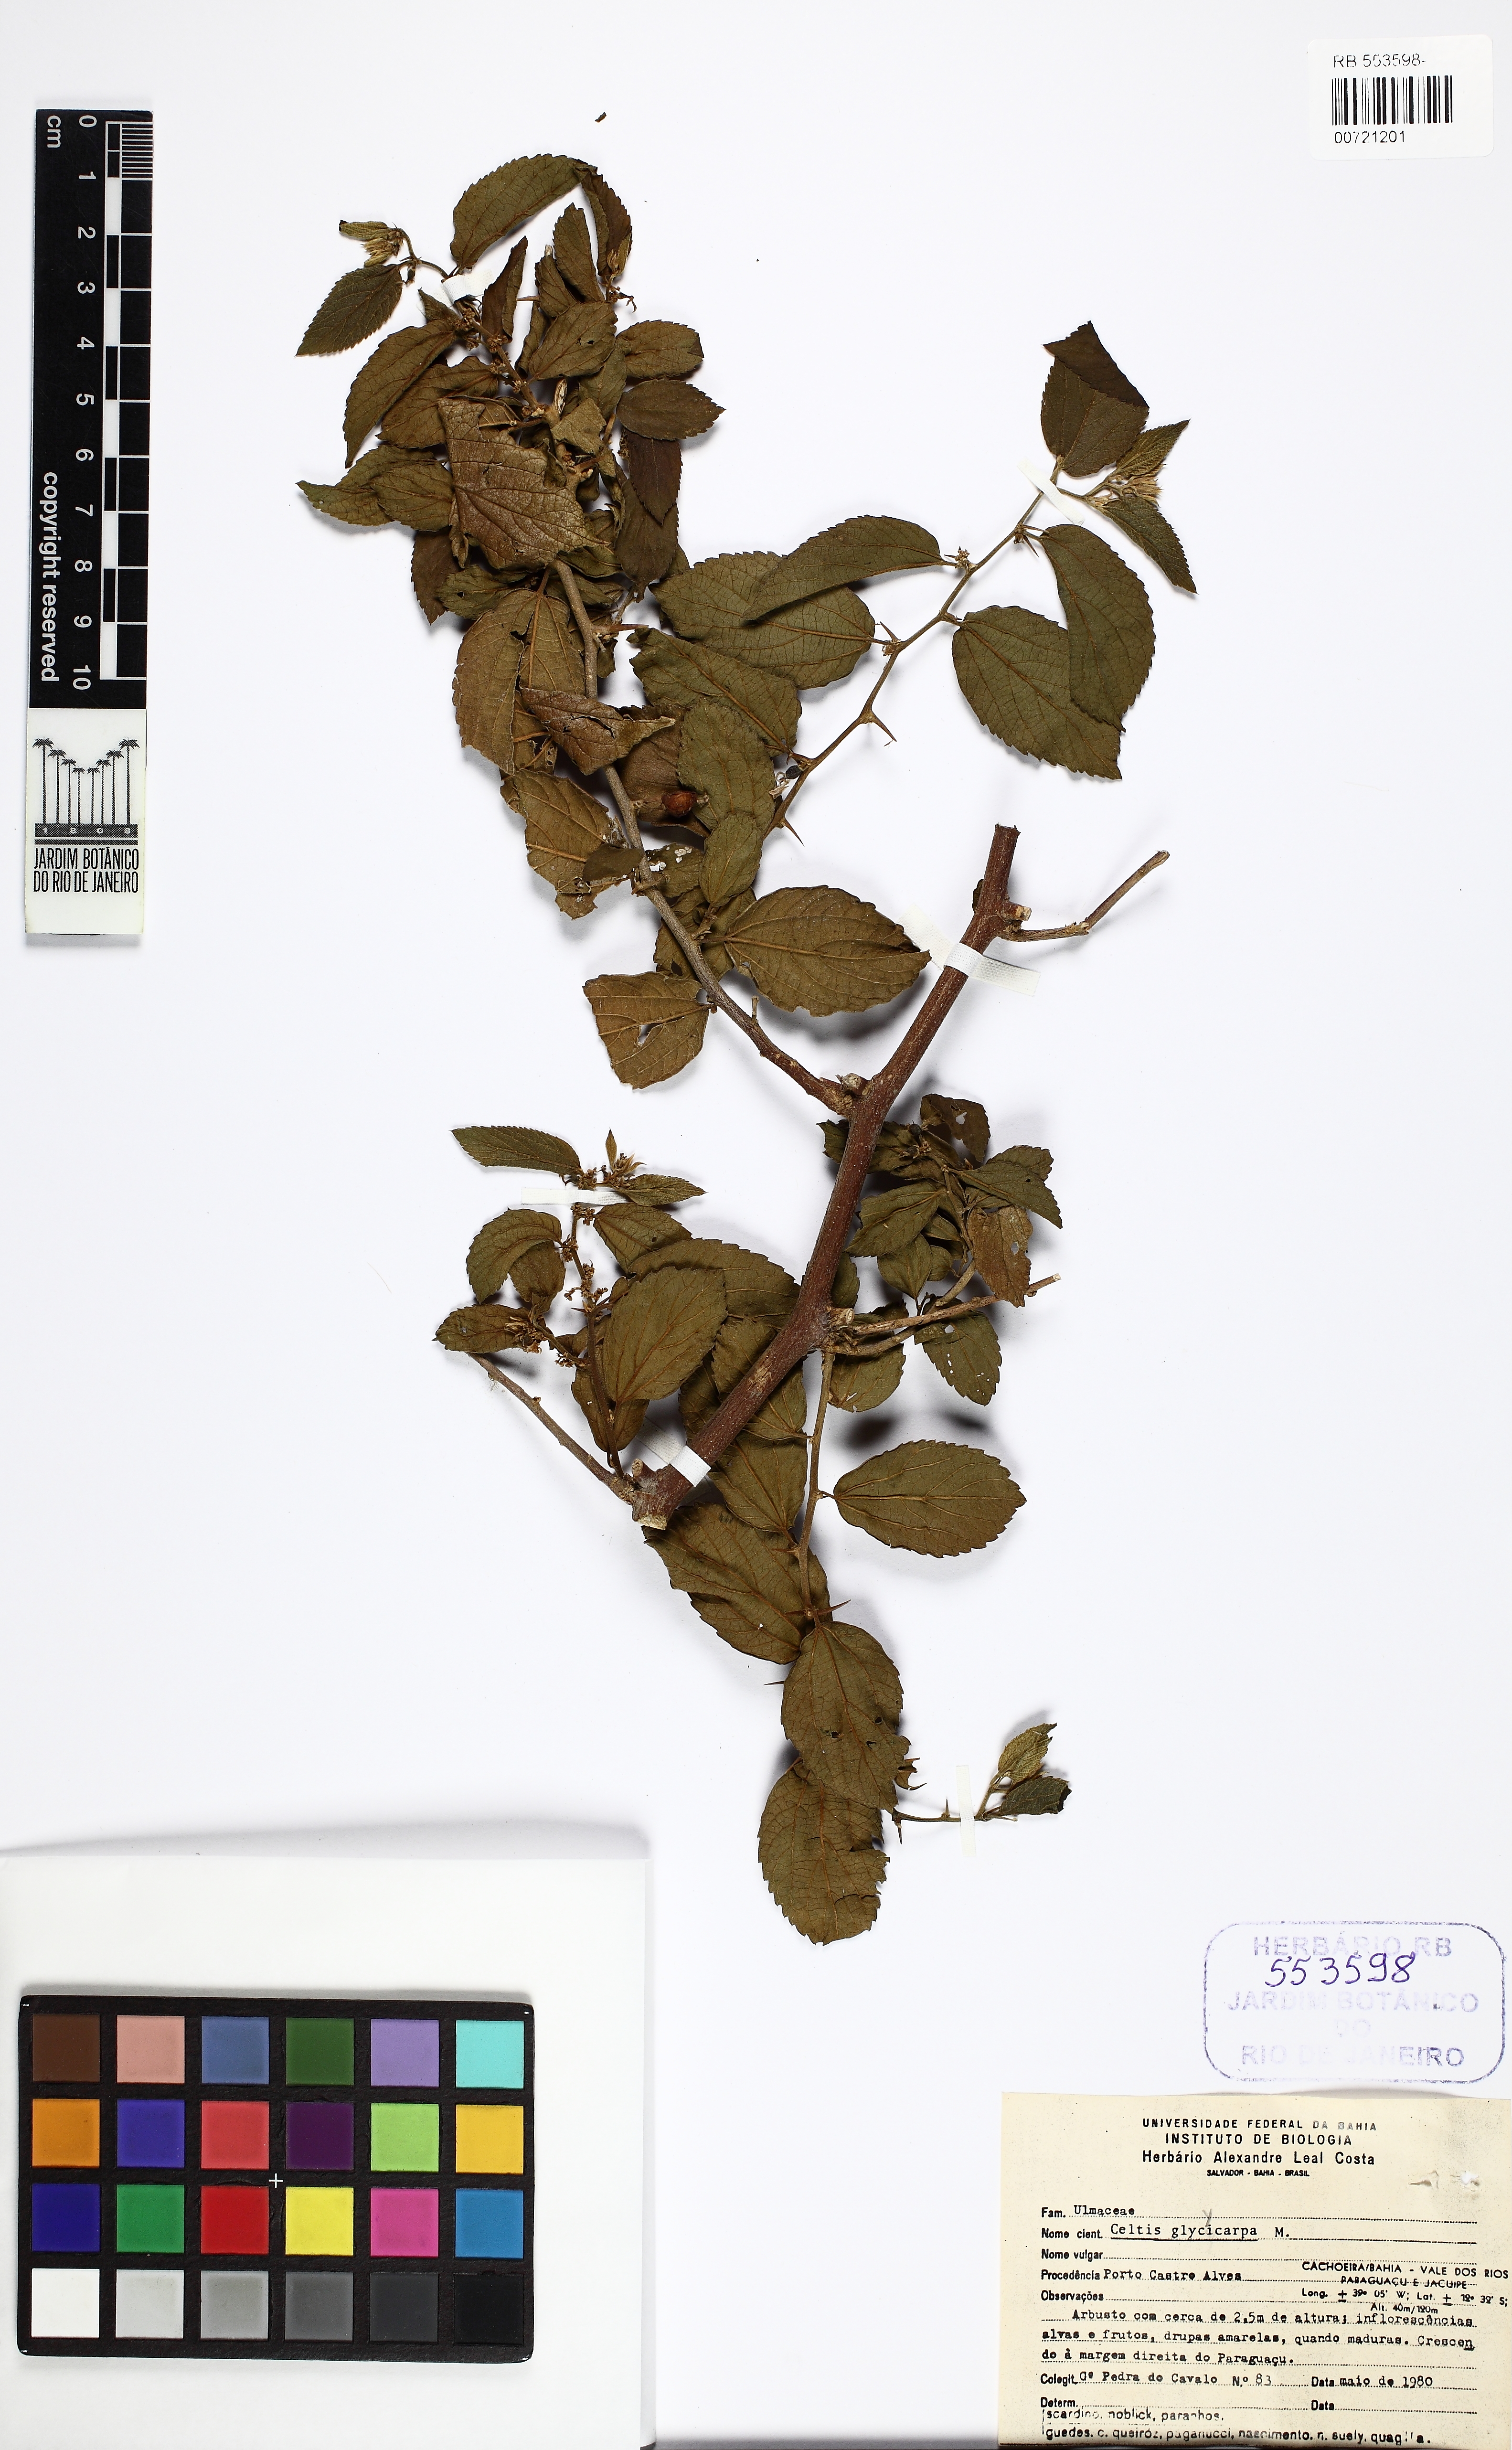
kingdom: Plantae
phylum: Tracheophyta
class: Magnoliopsida
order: Rosales
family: Cannabaceae
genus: Celtis
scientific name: Celtis spinosa
